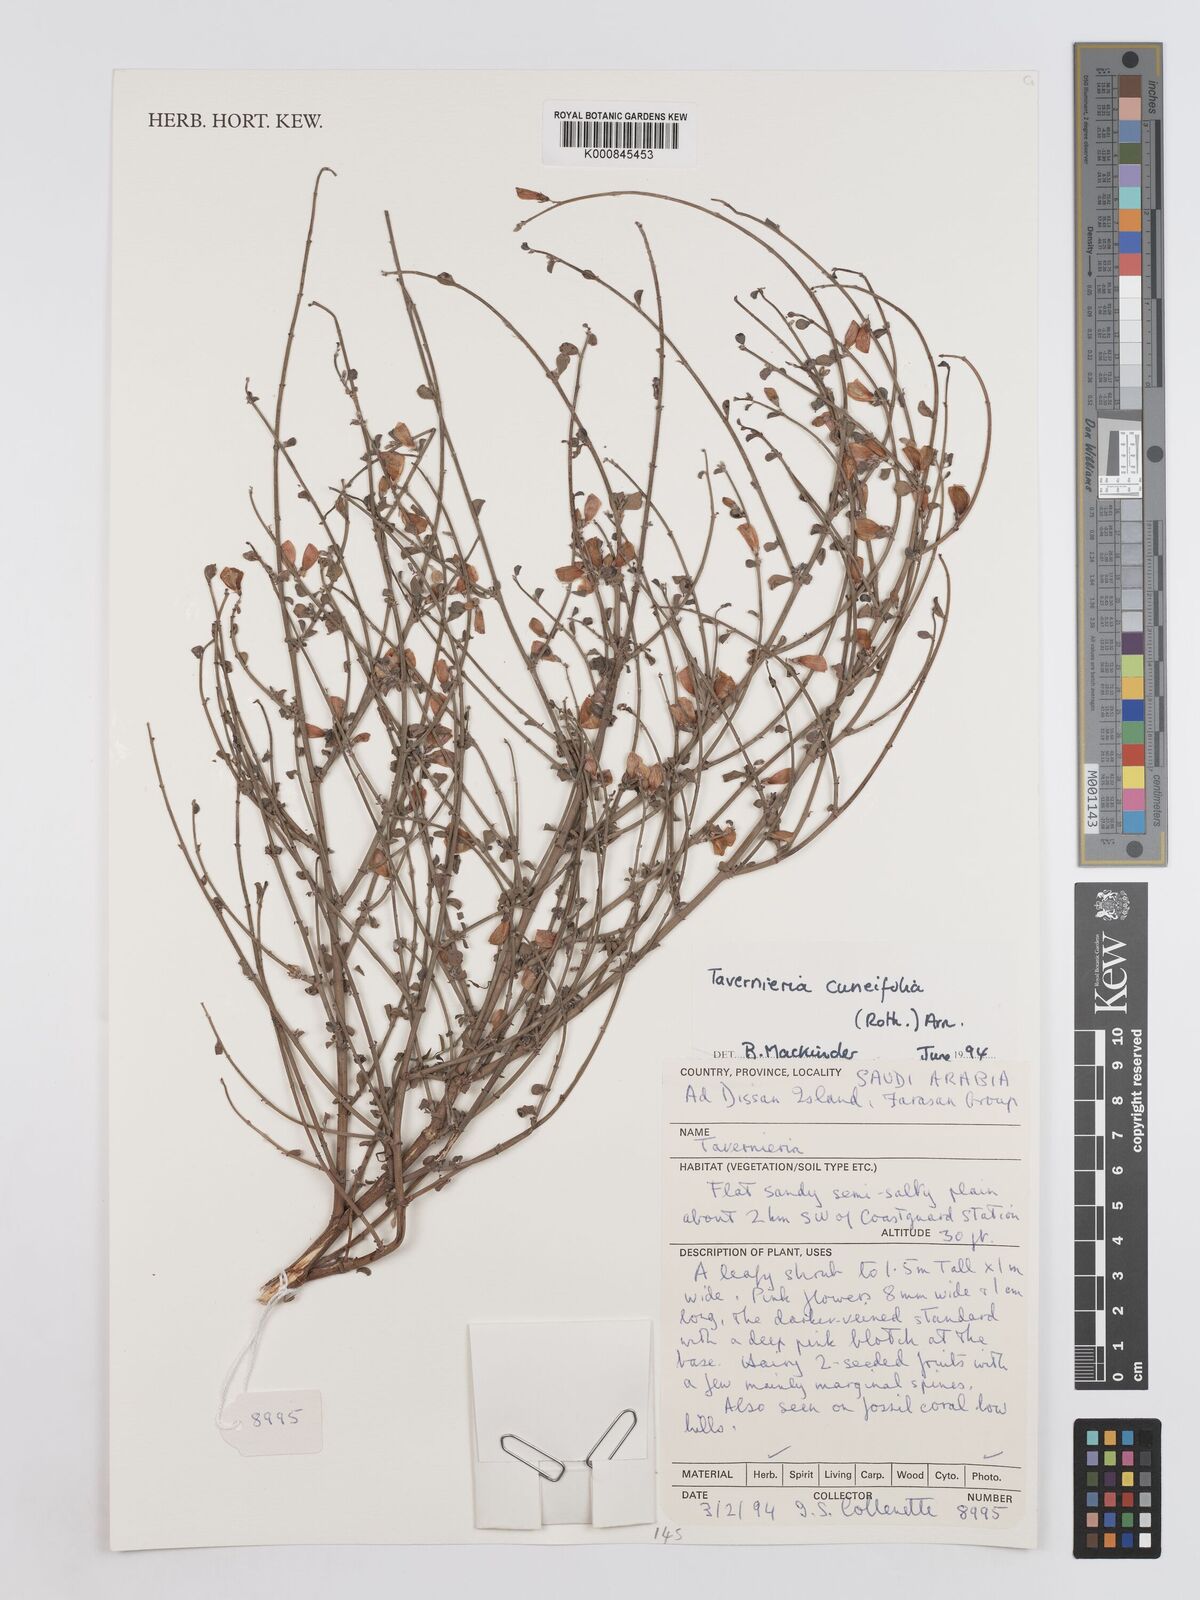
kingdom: Plantae
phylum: Tracheophyta
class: Magnoliopsida
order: Fabales
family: Fabaceae
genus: Taverniera
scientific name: Taverniera
